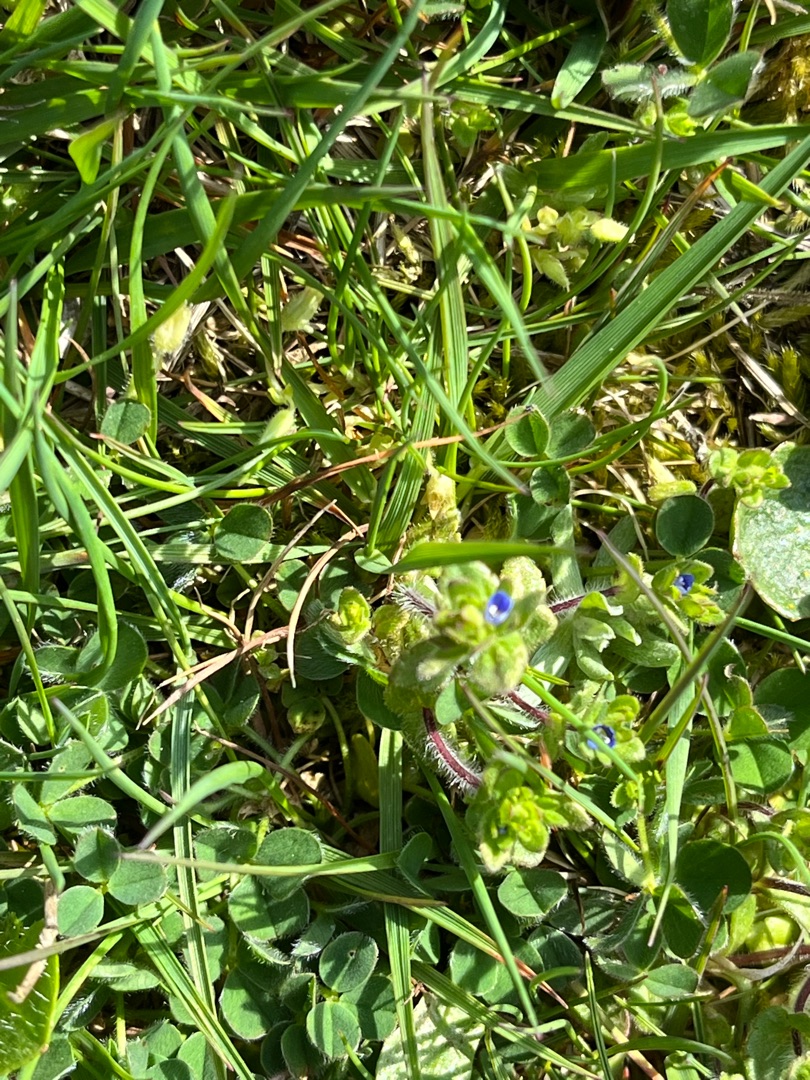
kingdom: Plantae
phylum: Tracheophyta
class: Magnoliopsida
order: Lamiales
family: Plantaginaceae
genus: Veronica
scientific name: Veronica arvensis
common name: Mark-ærenpris
